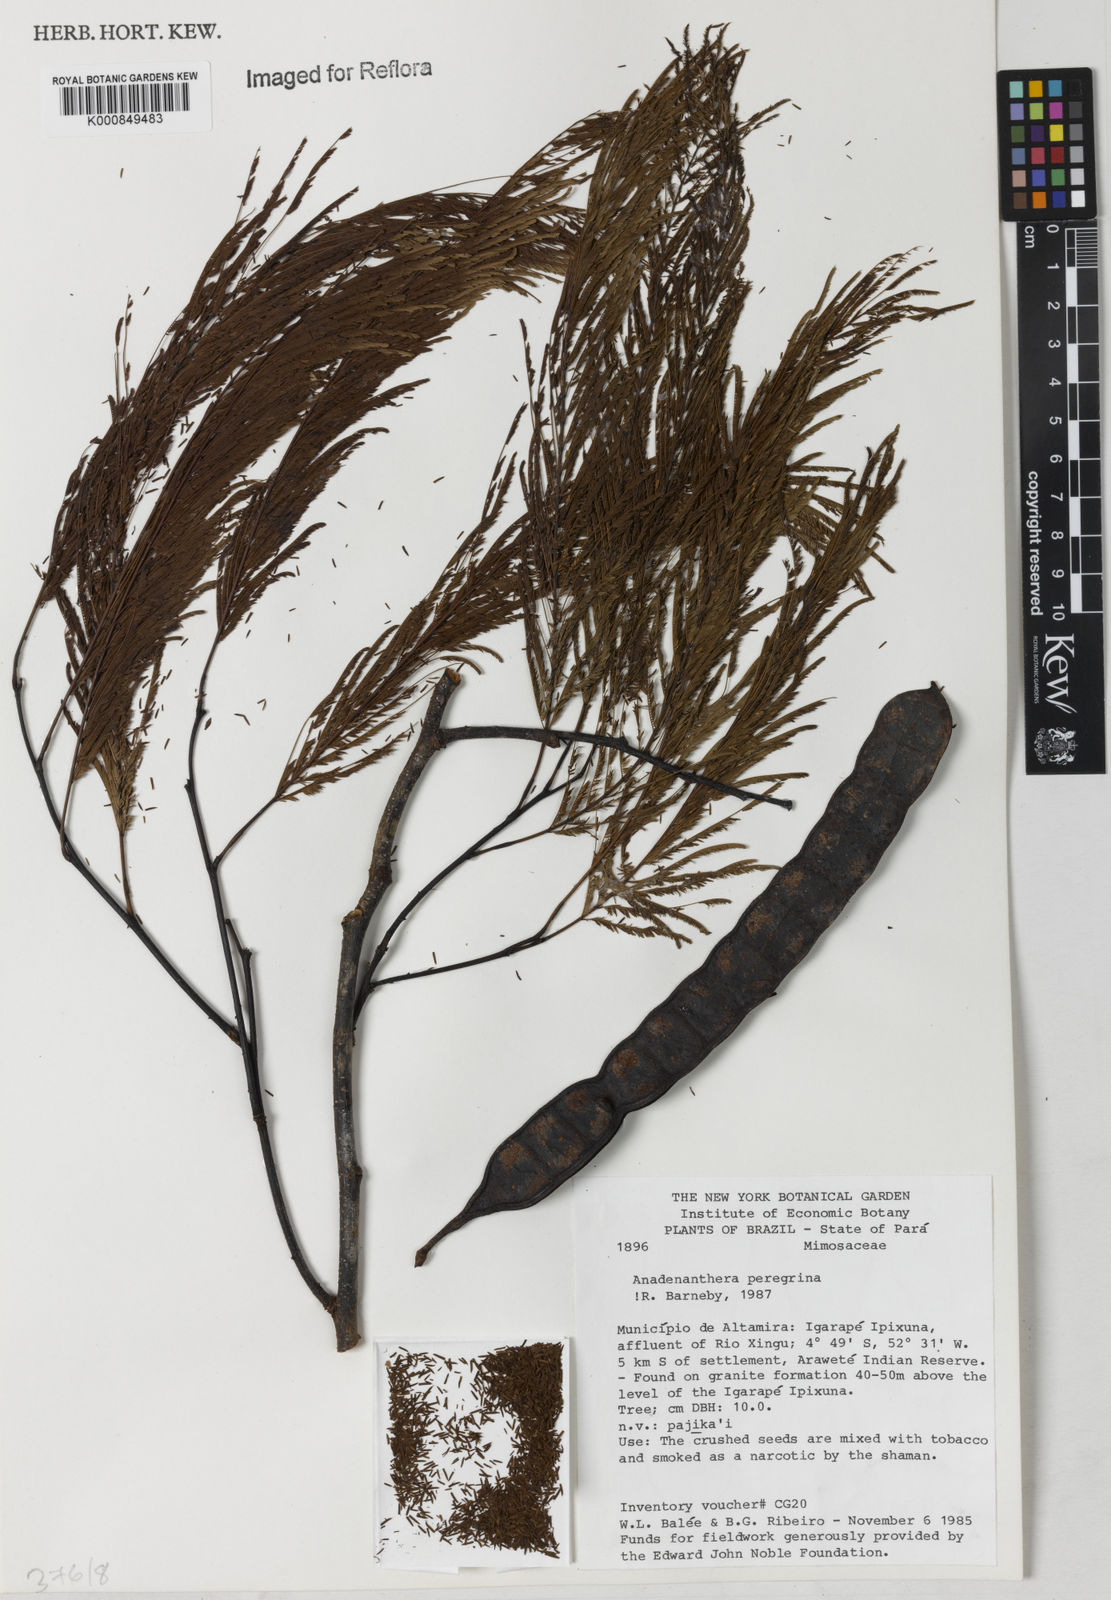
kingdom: Plantae
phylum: Tracheophyta
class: Magnoliopsida
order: Fabales
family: Fabaceae
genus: Anadenanthera
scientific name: Anadenanthera peregrina
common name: Cohoba
